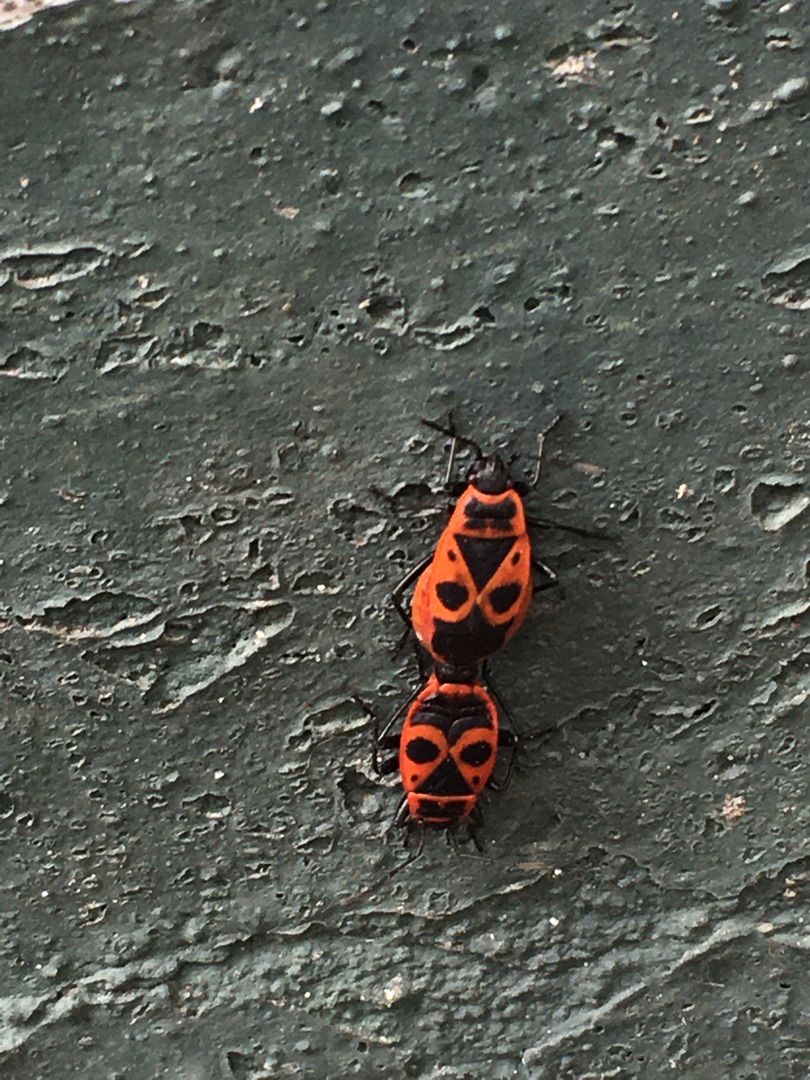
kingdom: Animalia
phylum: Arthropoda
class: Insecta
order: Hemiptera
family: Pyrrhocoridae
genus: Pyrrhocoris
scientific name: Pyrrhocoris apterus
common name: Ildtæge
